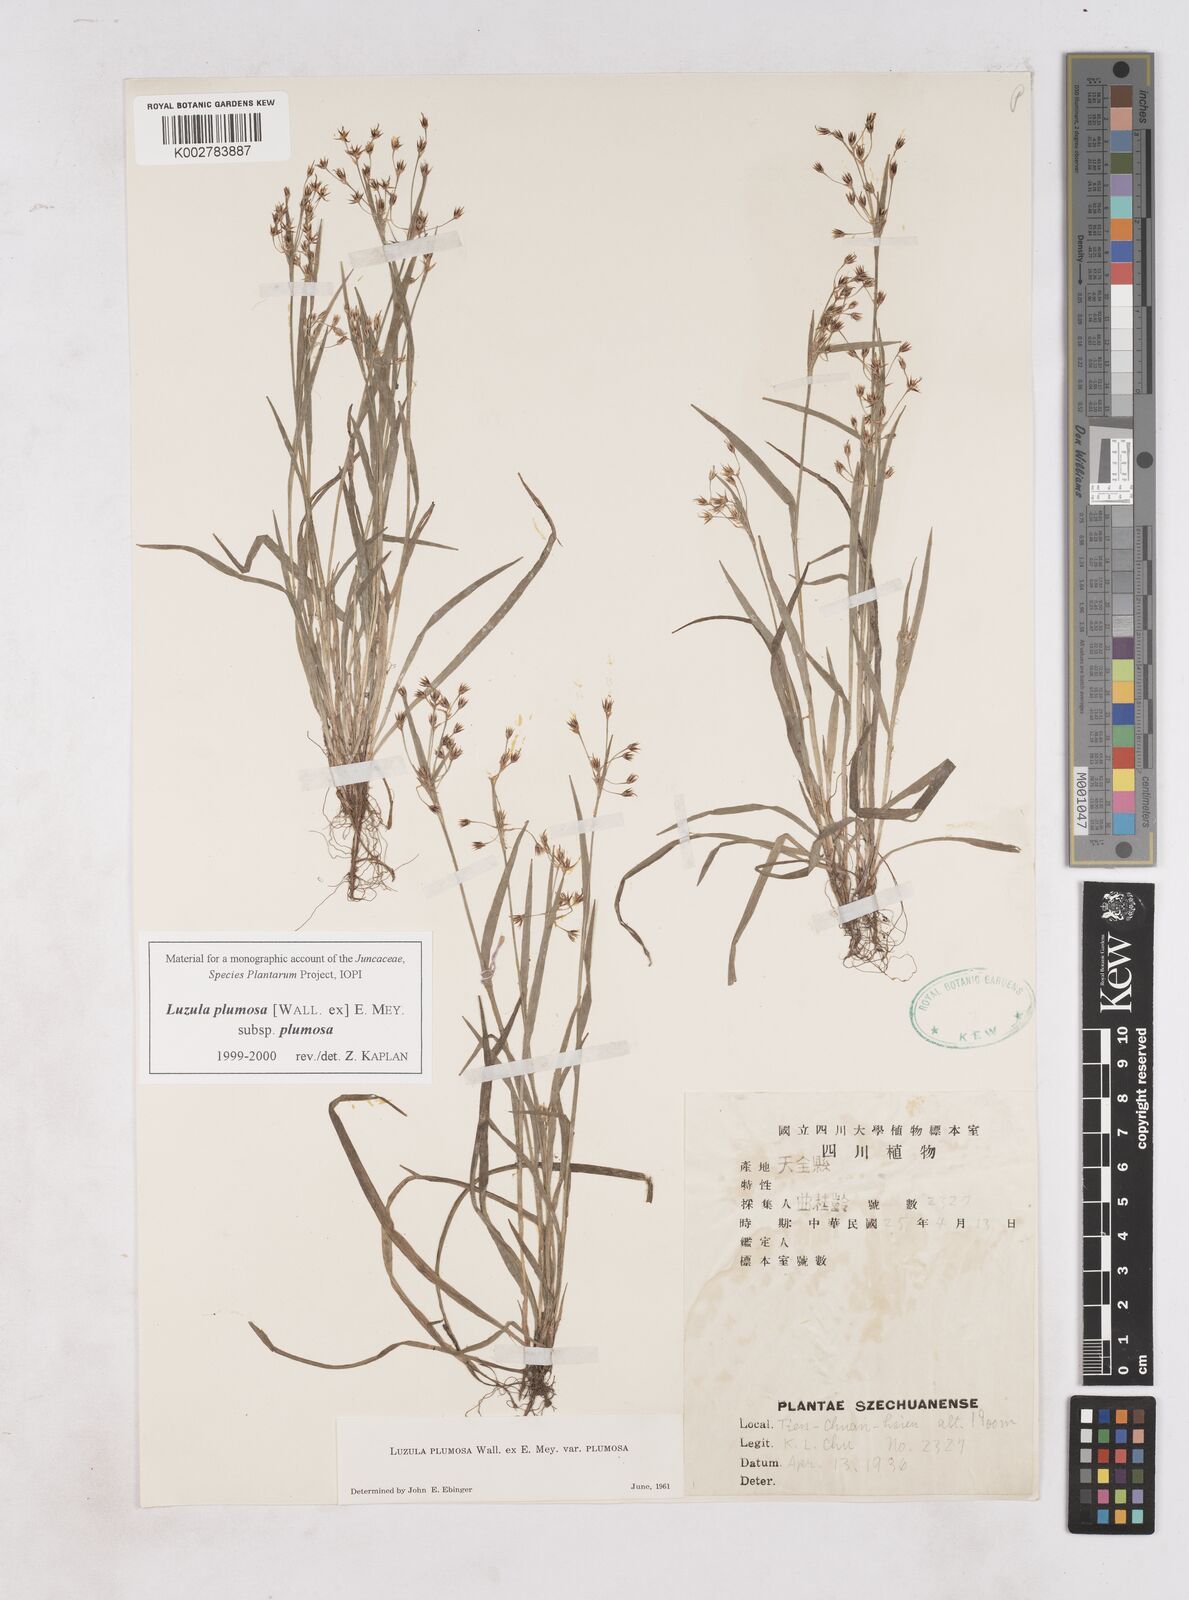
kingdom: Plantae
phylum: Tracheophyta
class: Liliopsida
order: Poales
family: Juncaceae
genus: Luzula
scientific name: Luzula plumosa
